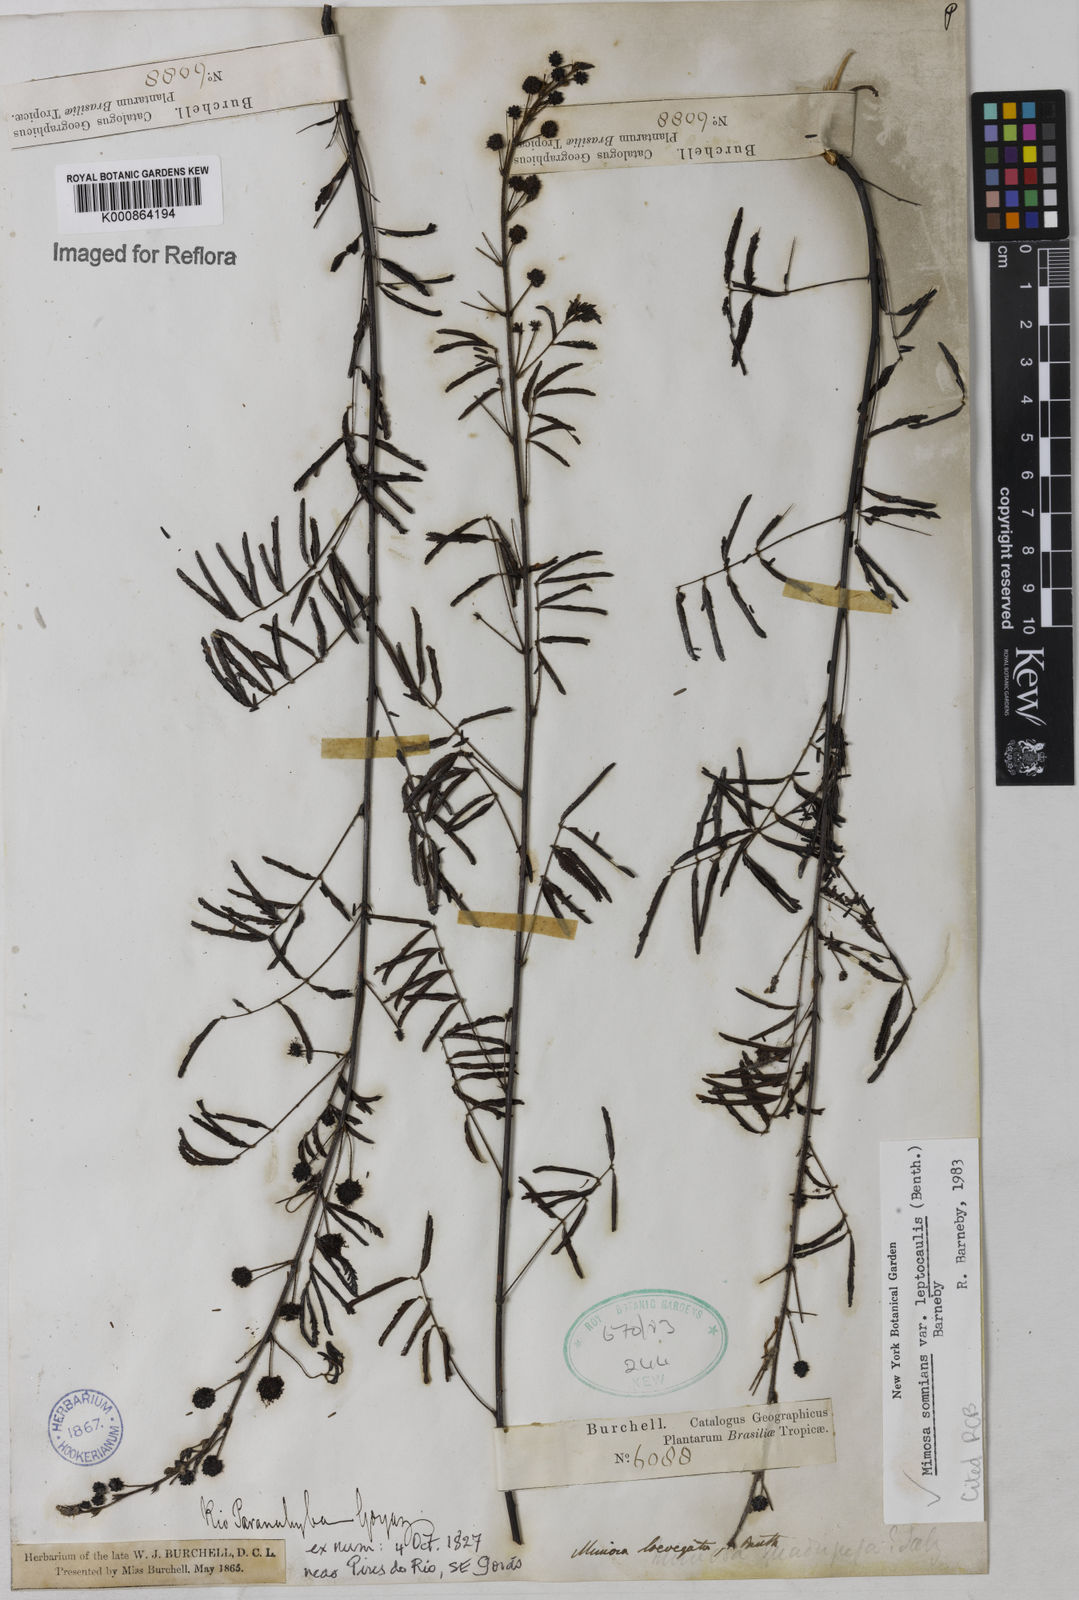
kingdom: Plantae
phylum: Tracheophyta
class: Magnoliopsida
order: Fabales
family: Fabaceae
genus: Mimosa
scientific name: Mimosa somnians
